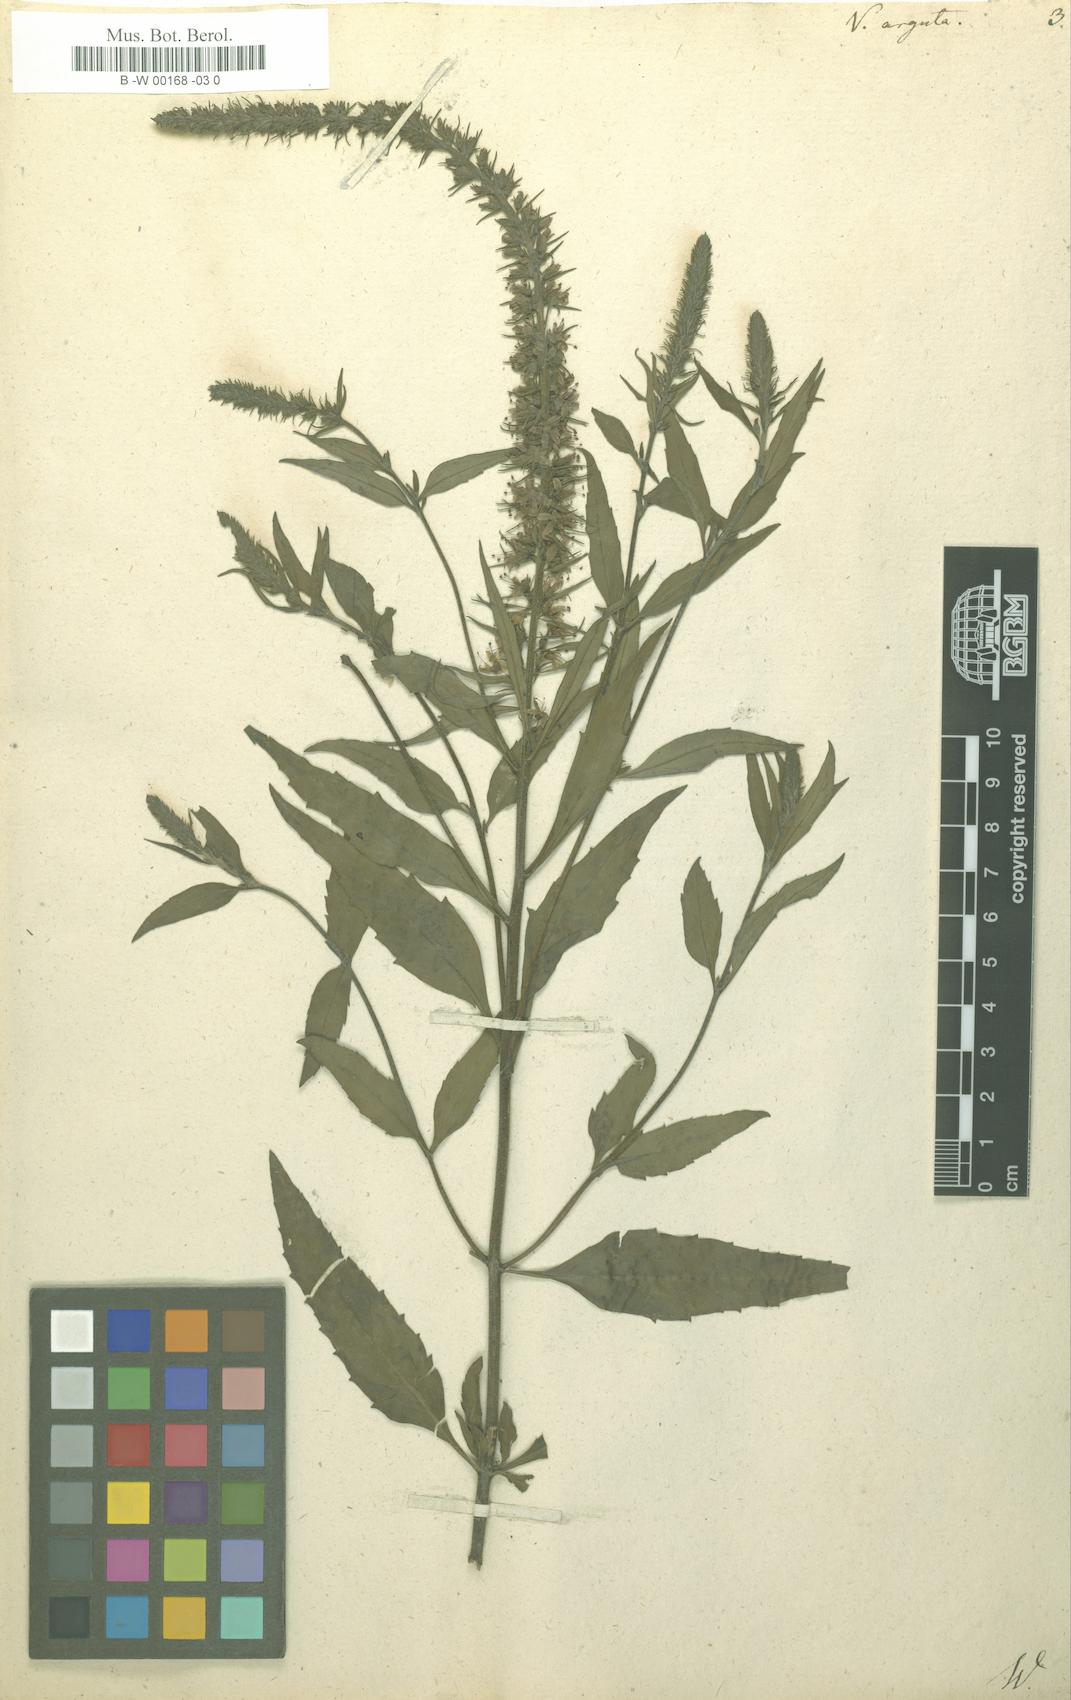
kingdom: Plantae
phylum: Tracheophyta
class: Magnoliopsida
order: Lamiales
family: Plantaginaceae
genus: Veronica
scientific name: Veronica
